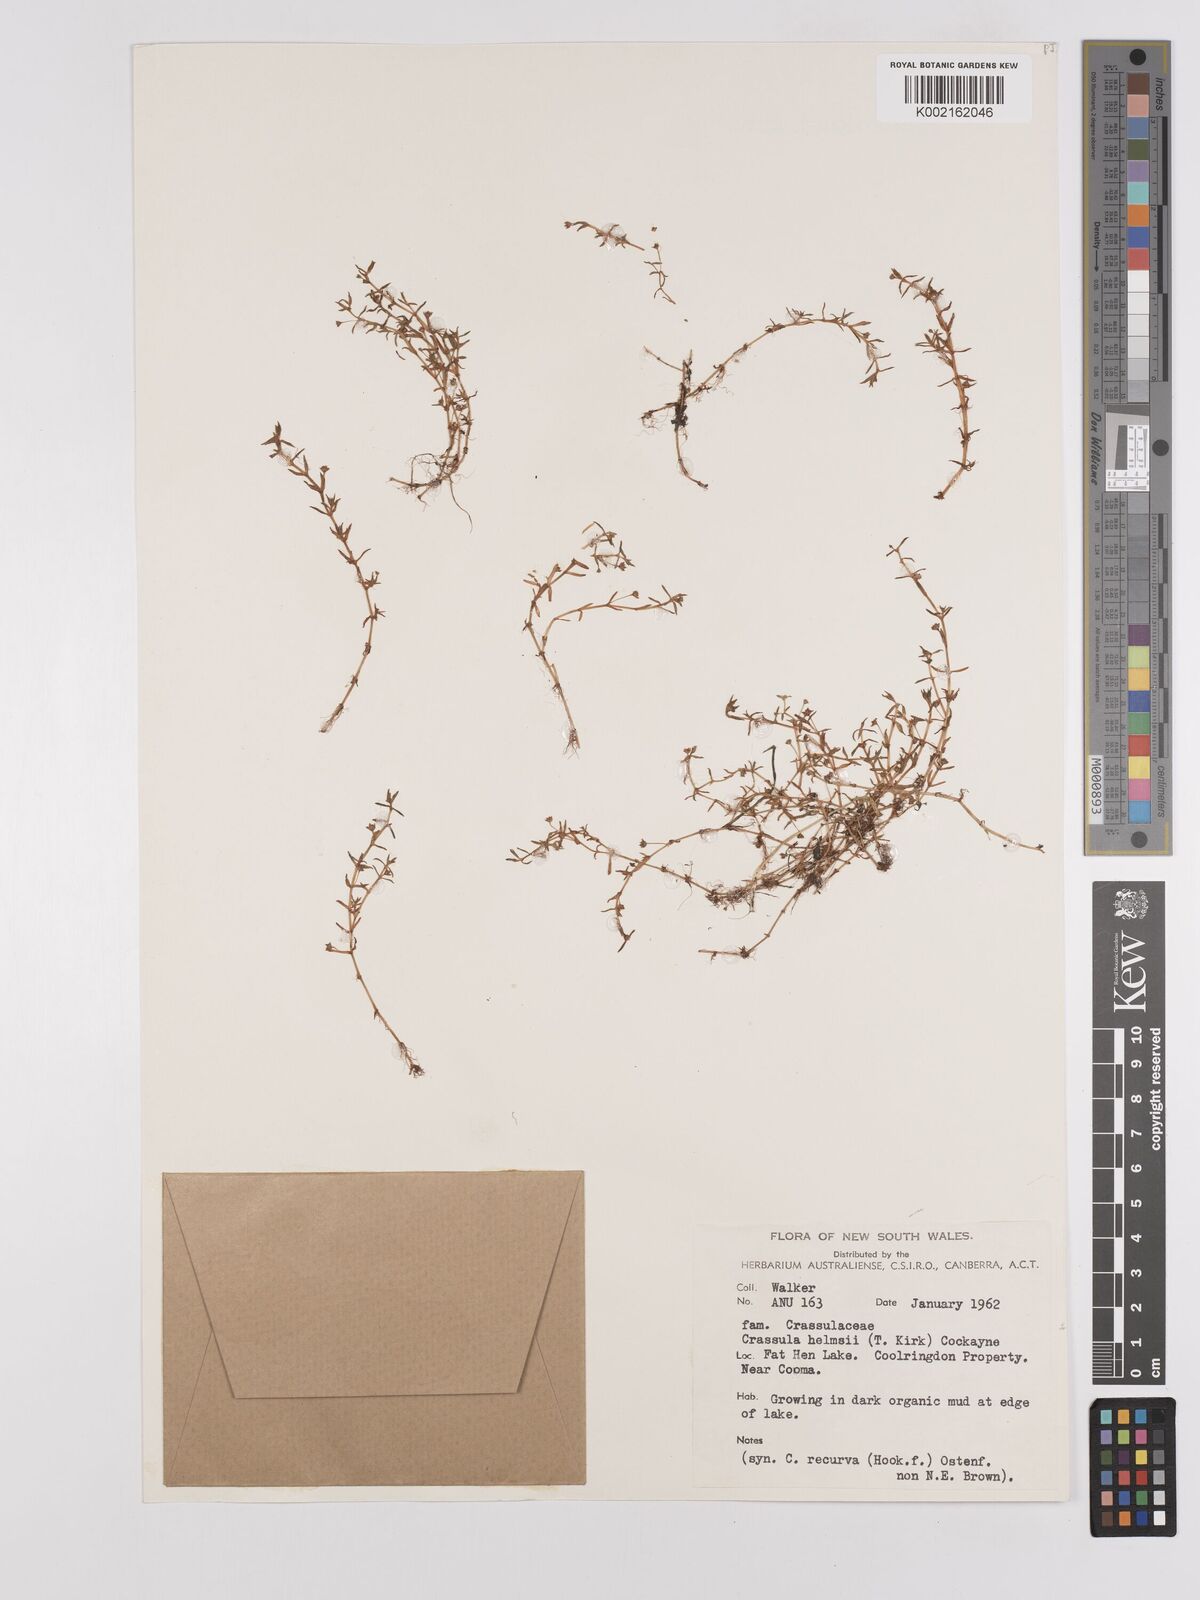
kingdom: Plantae
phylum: Tracheophyta
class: Magnoliopsida
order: Saxifragales
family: Crassulaceae
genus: Crassula
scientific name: Crassula helmsii
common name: New zealand pigmyweed
